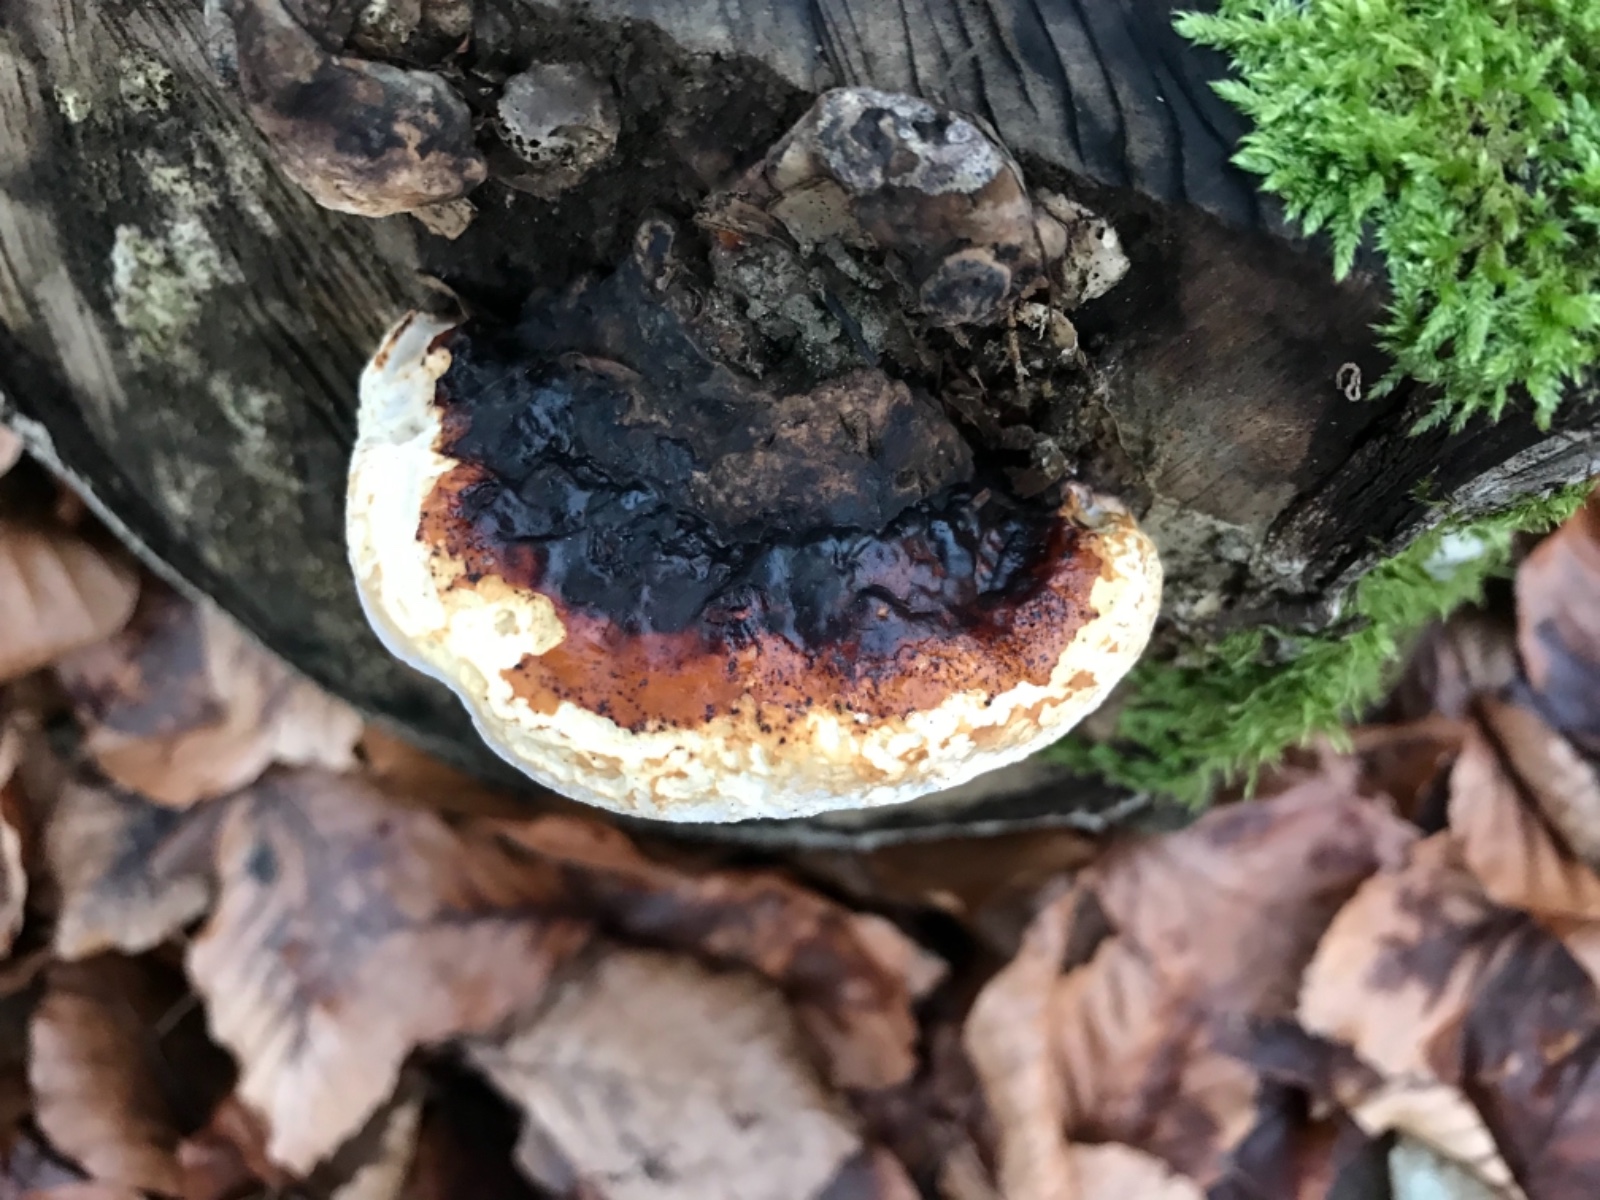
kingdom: Fungi
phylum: Basidiomycota
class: Agaricomycetes
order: Polyporales
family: Fomitopsidaceae
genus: Fomitopsis
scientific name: Fomitopsis pinicola
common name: randbæltet hovporesvamp
